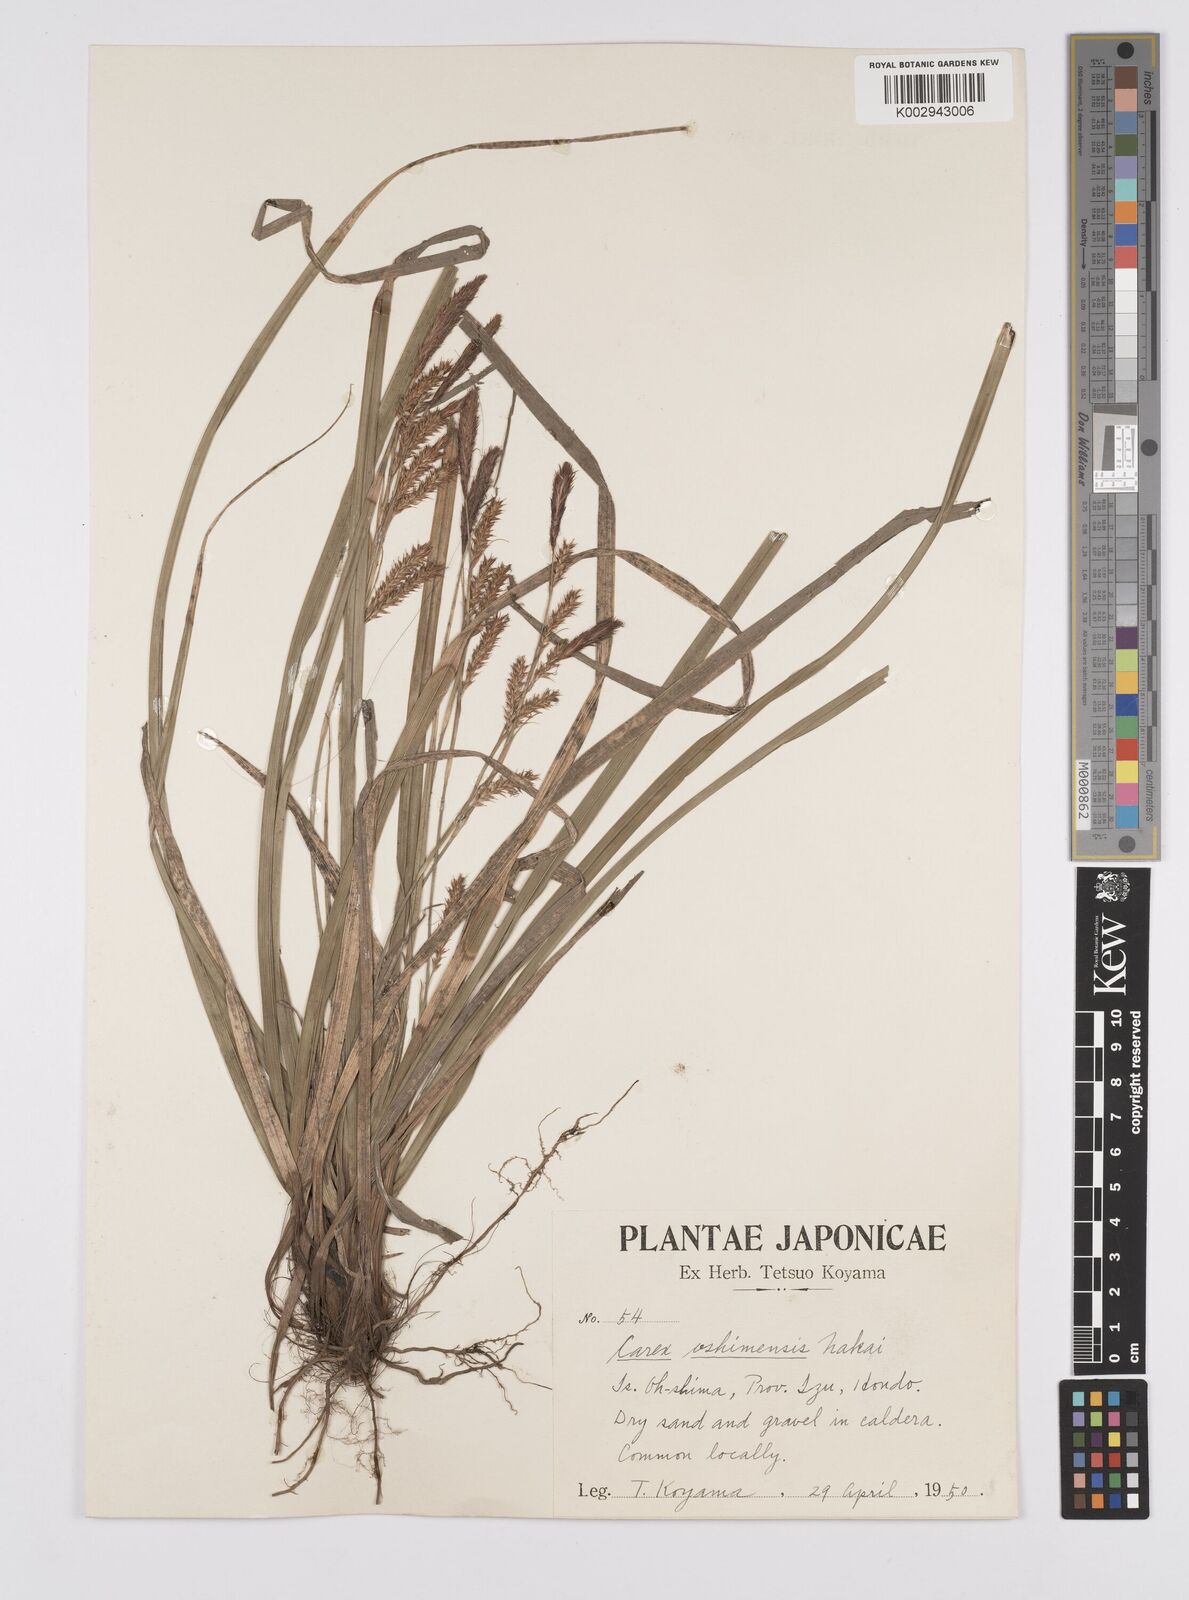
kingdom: Plantae
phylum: Tracheophyta
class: Liliopsida
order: Poales
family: Cyperaceae
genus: Carex
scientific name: Carex oshimensis
